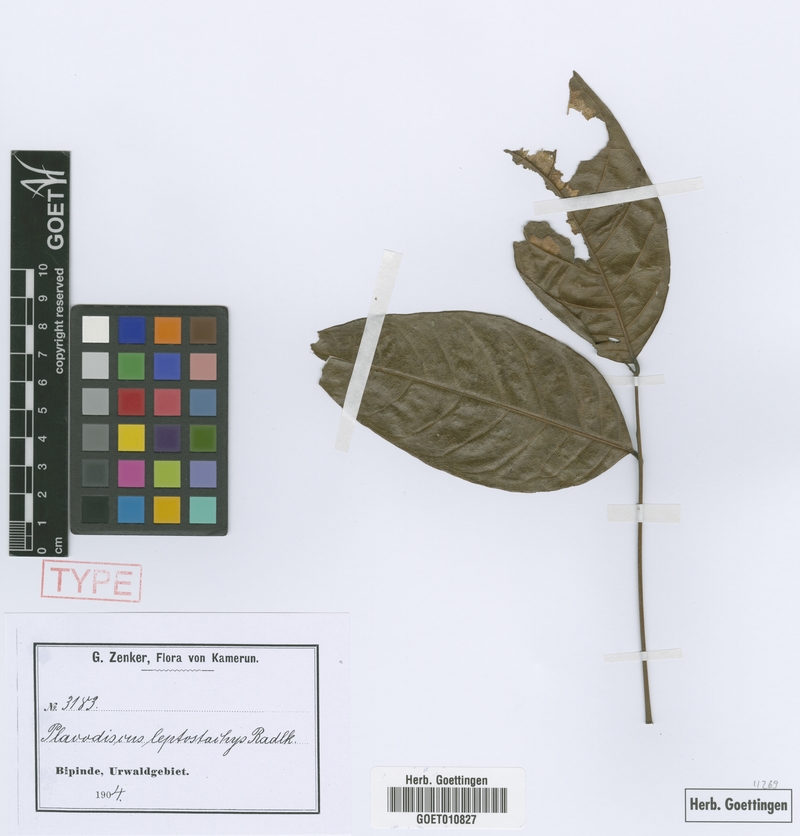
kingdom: Plantae
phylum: Tracheophyta
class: Magnoliopsida
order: Sapindales
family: Sapindaceae
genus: Placodiscus
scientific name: Placodiscus glandulosus
